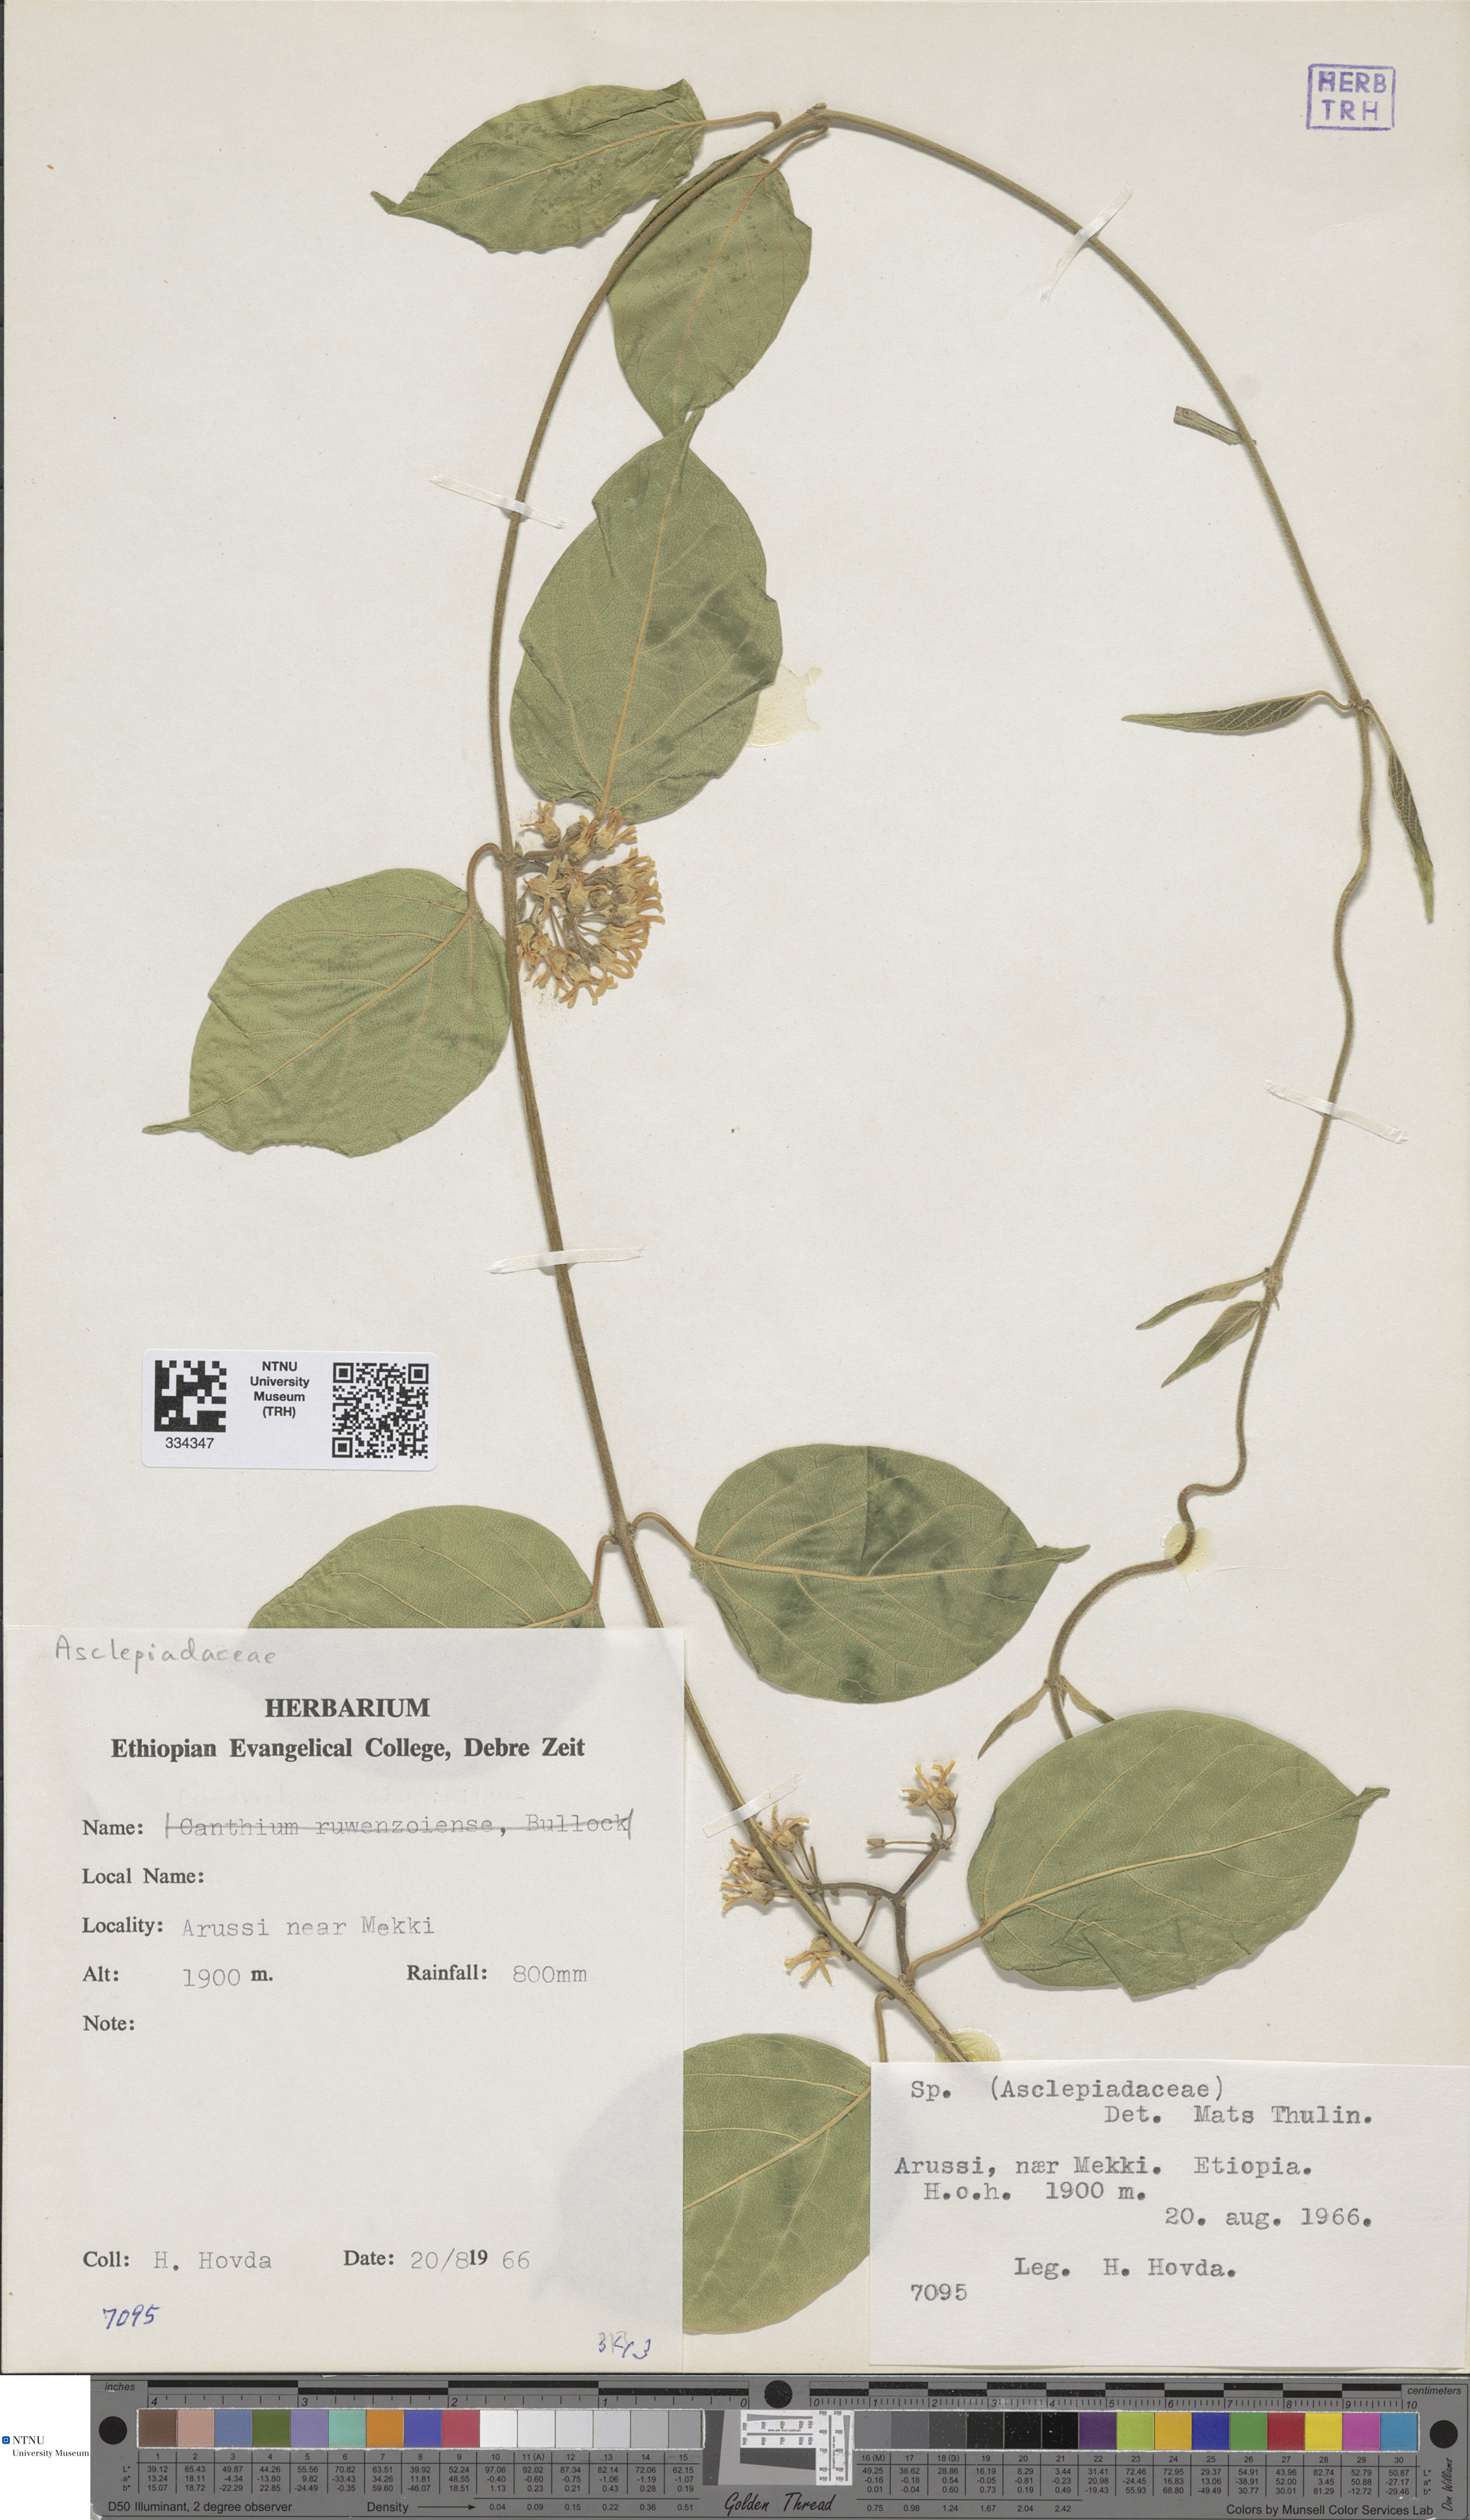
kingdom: Plantae
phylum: Tracheophyta
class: Magnoliopsida
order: Gentianales
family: Asclepiadaceae
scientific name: Asclepiadaceae
